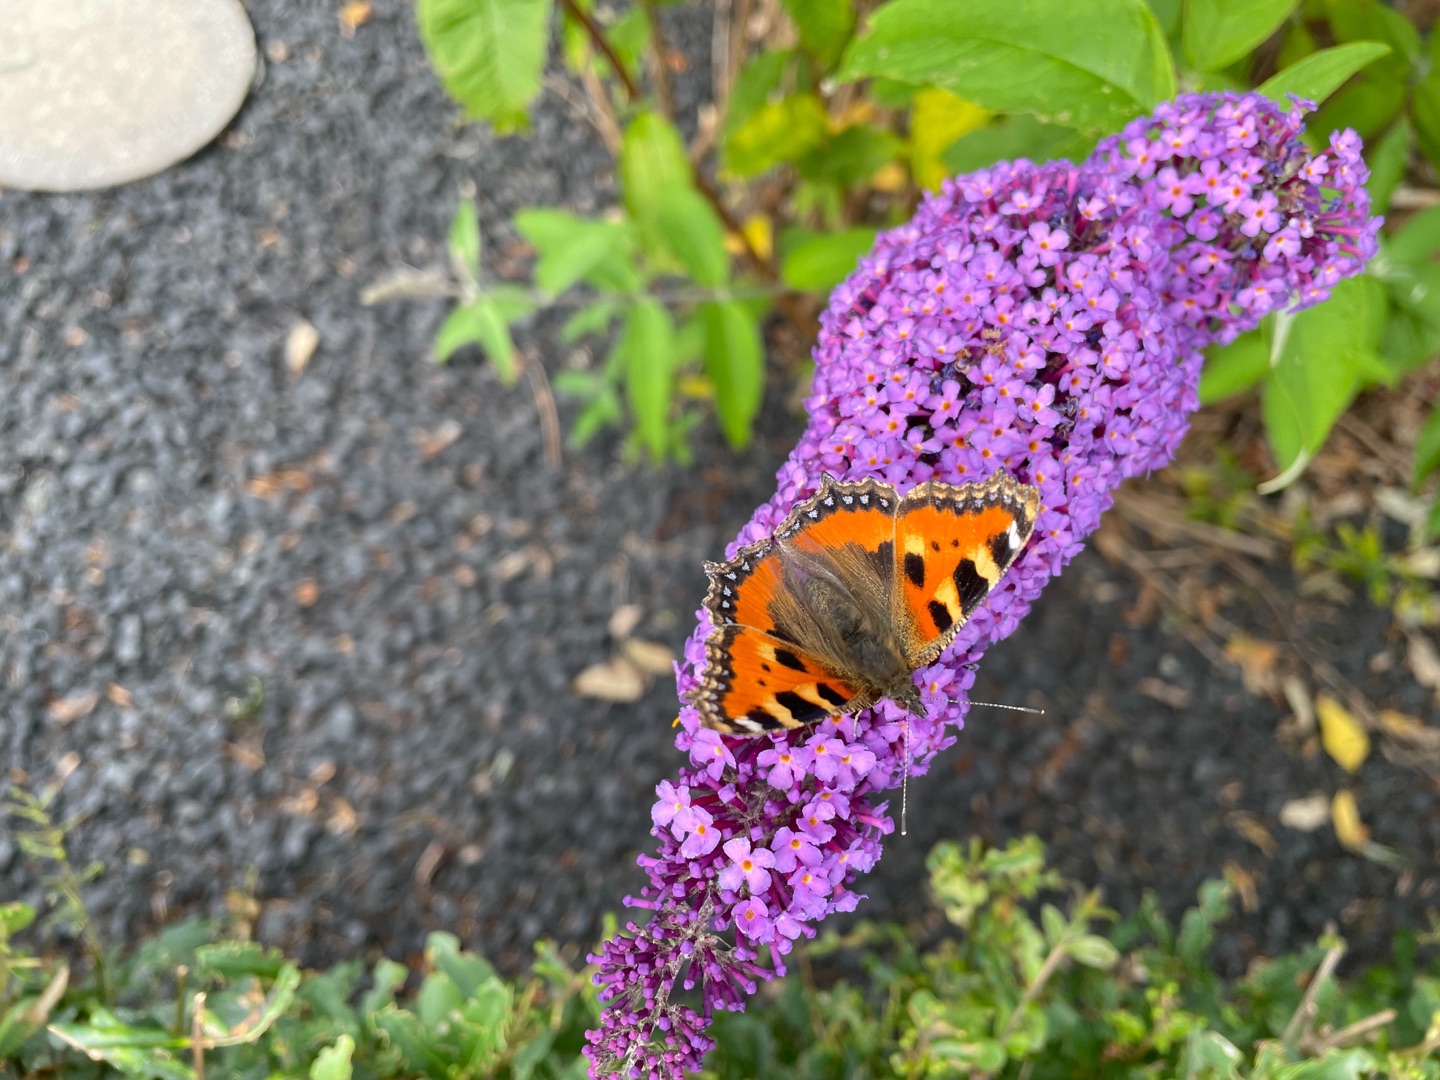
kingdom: Animalia
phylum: Arthropoda
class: Insecta
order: Lepidoptera
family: Nymphalidae
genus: Aglais
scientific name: Aglais urticae
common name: Nældens takvinge
